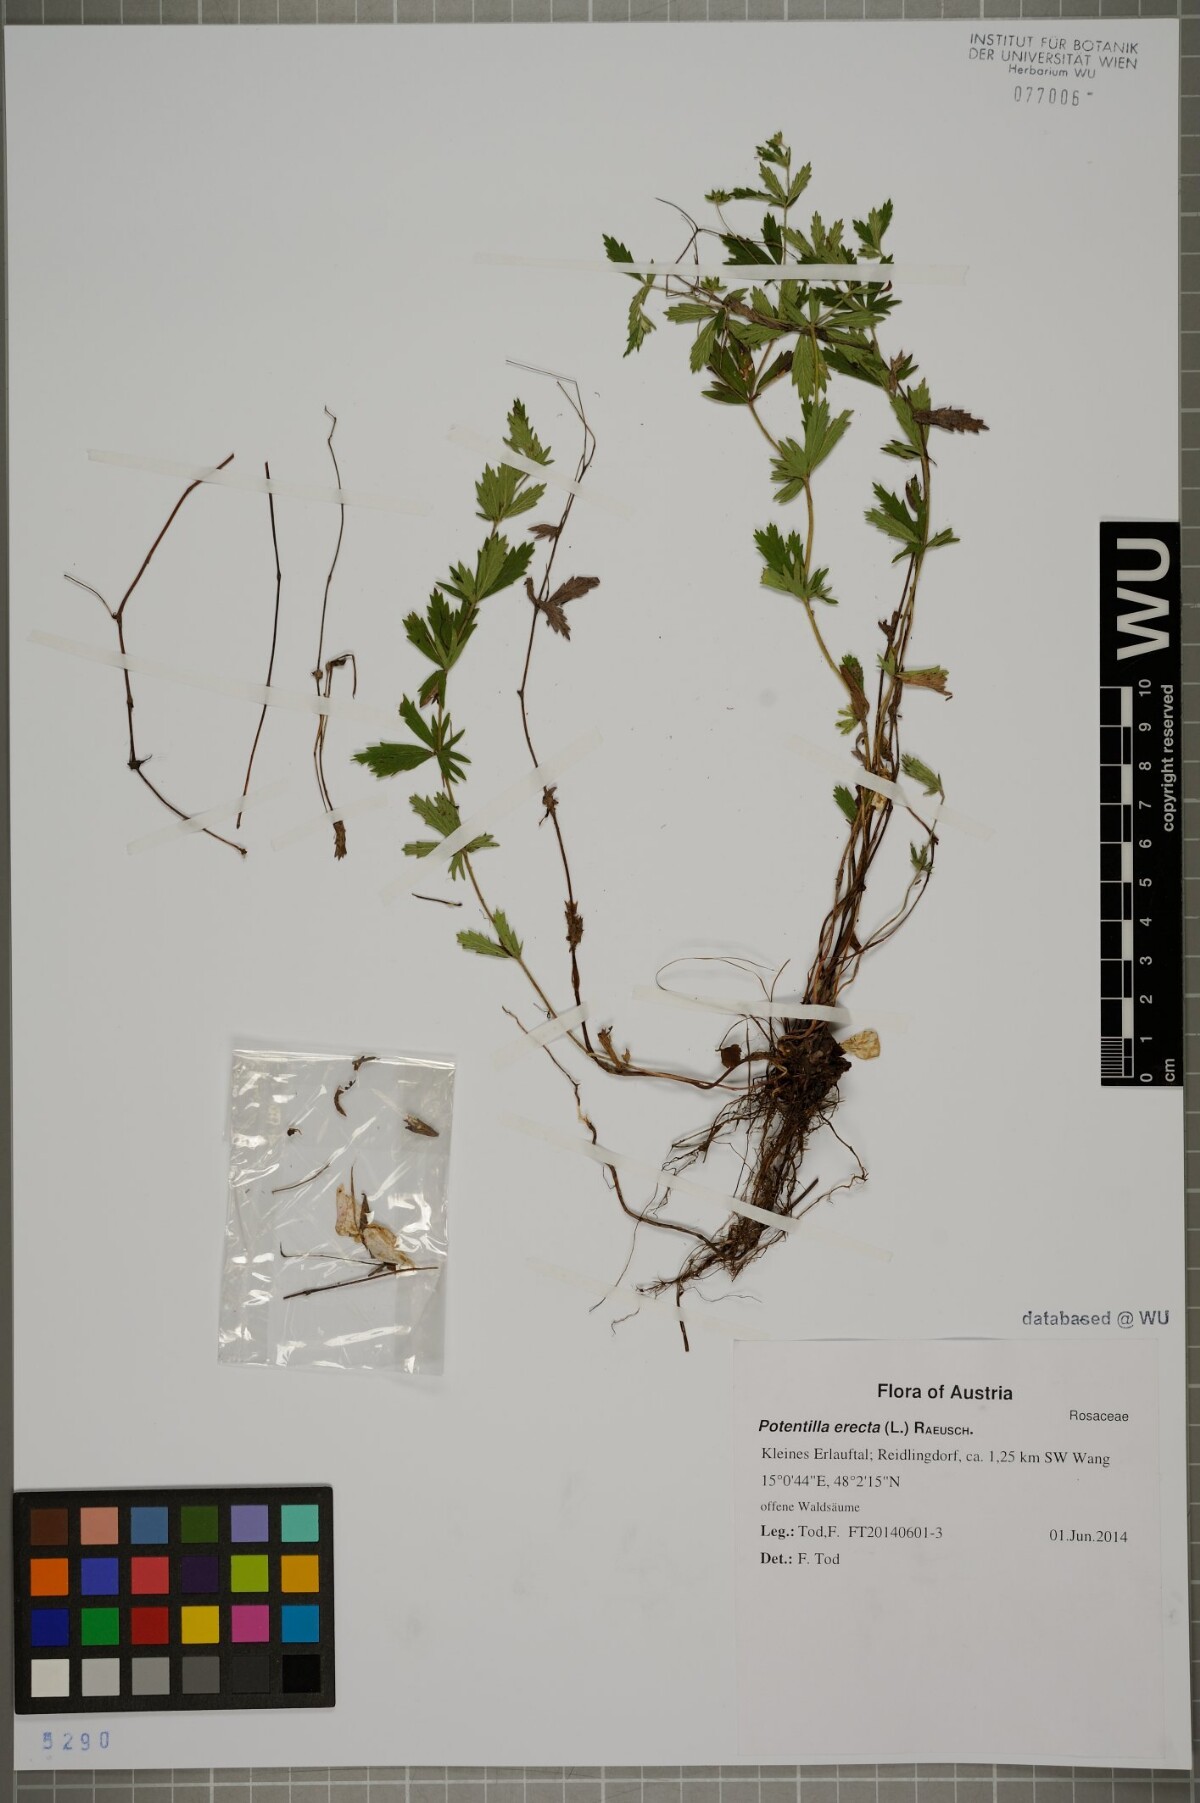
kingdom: Plantae
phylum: Tracheophyta
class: Magnoliopsida
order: Rosales
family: Rosaceae
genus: Potentilla
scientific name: Potentilla erecta
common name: Tormentil
